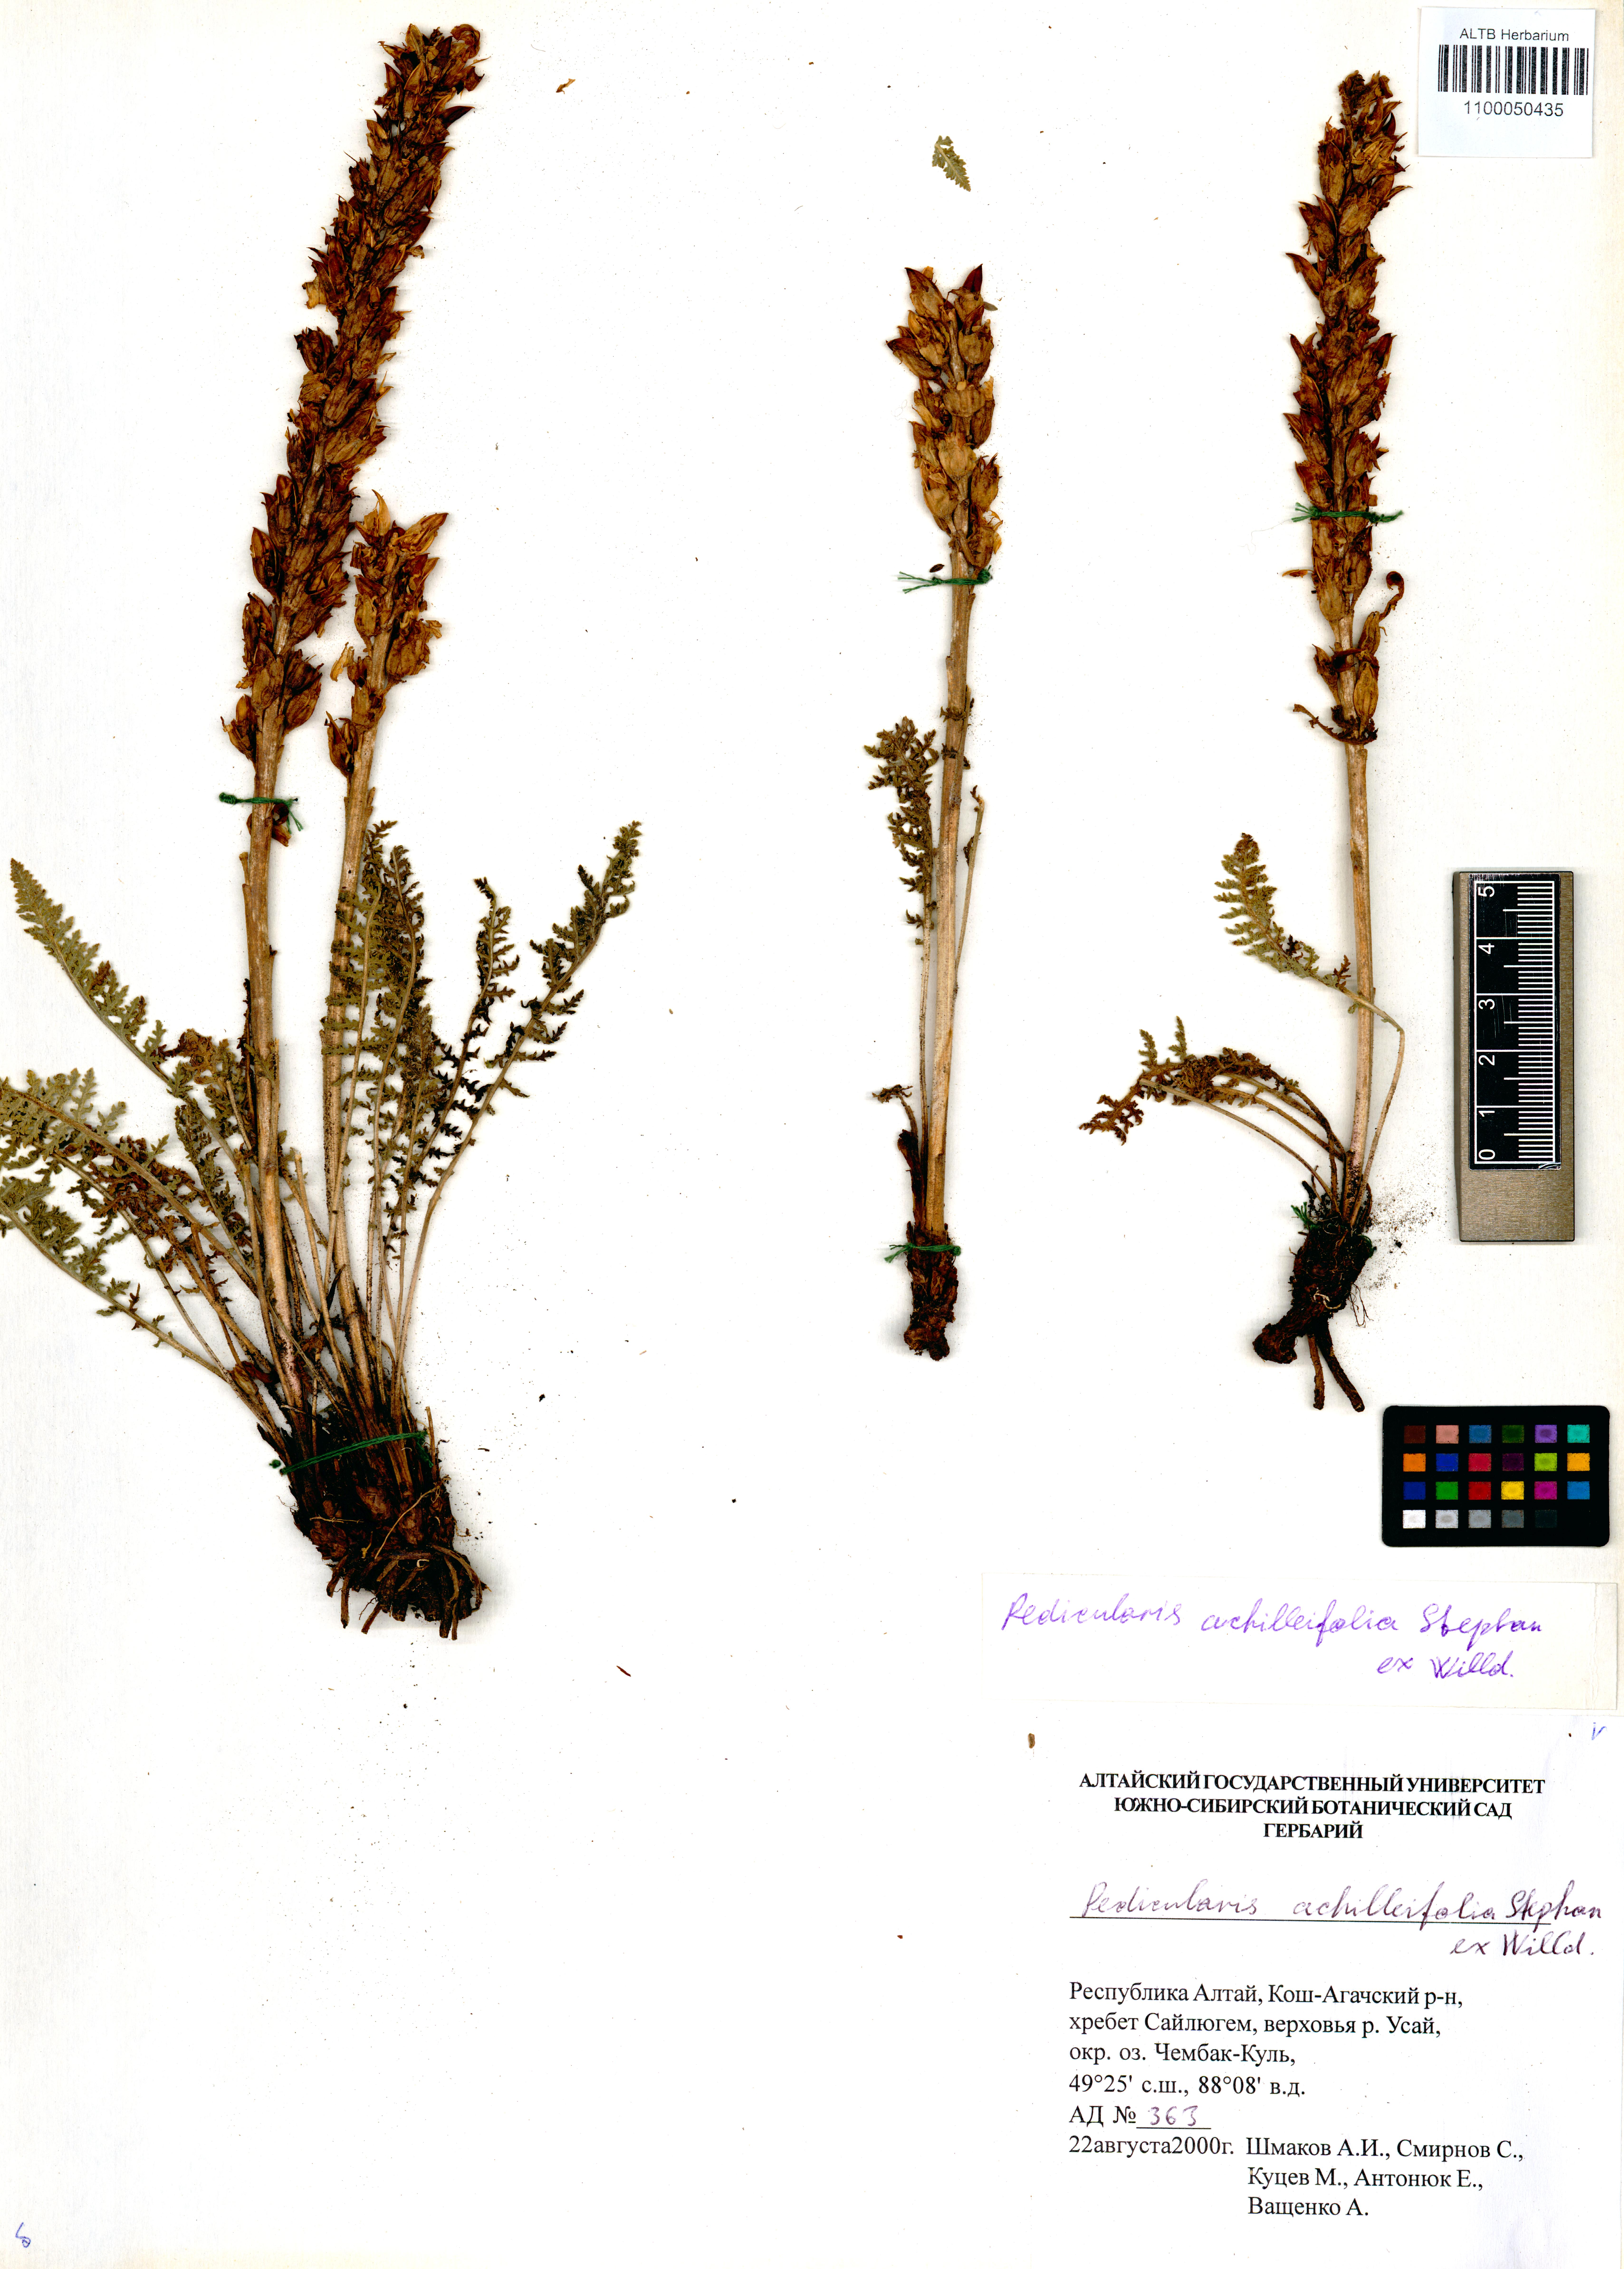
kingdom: Plantae
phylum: Tracheophyta
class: Magnoliopsida
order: Lamiales
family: Orobanchaceae
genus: Pedicularis
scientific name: Pedicularis achilleifolia
